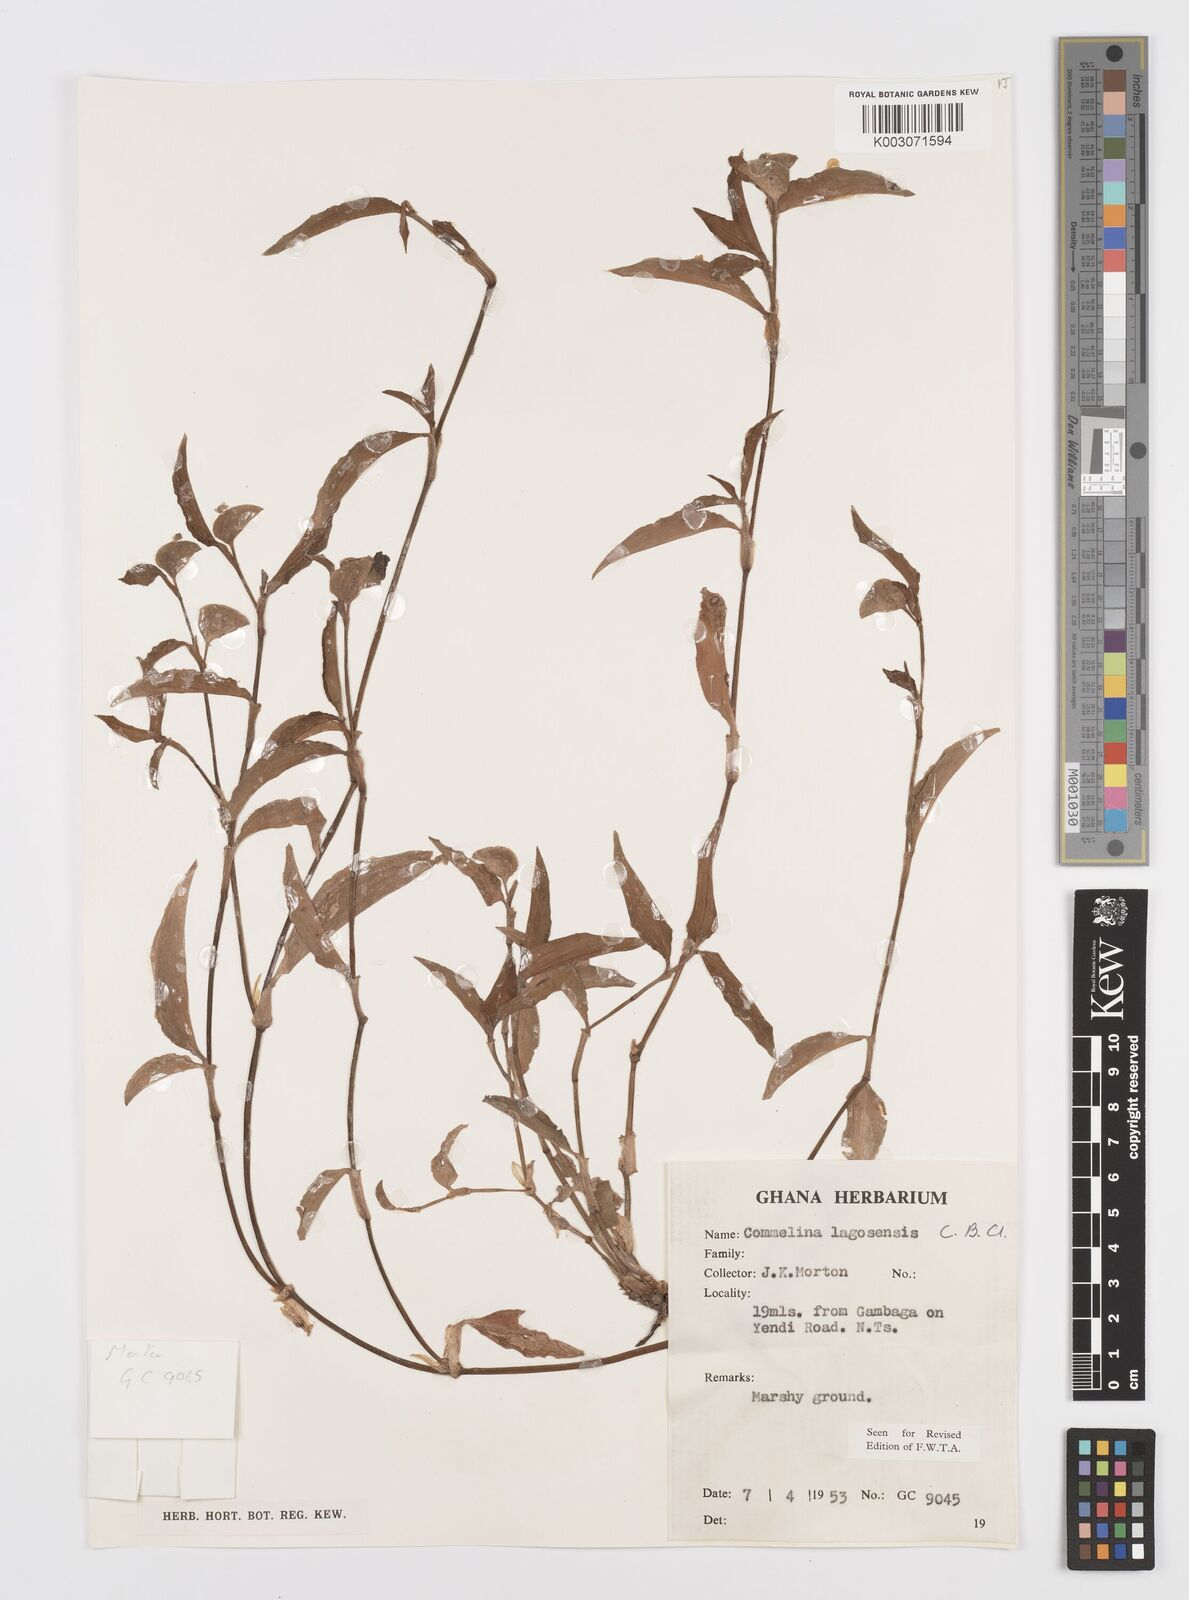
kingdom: Plantae
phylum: Tracheophyta
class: Liliopsida
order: Commelinales
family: Commelinaceae
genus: Commelina
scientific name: Commelina bracteosa
